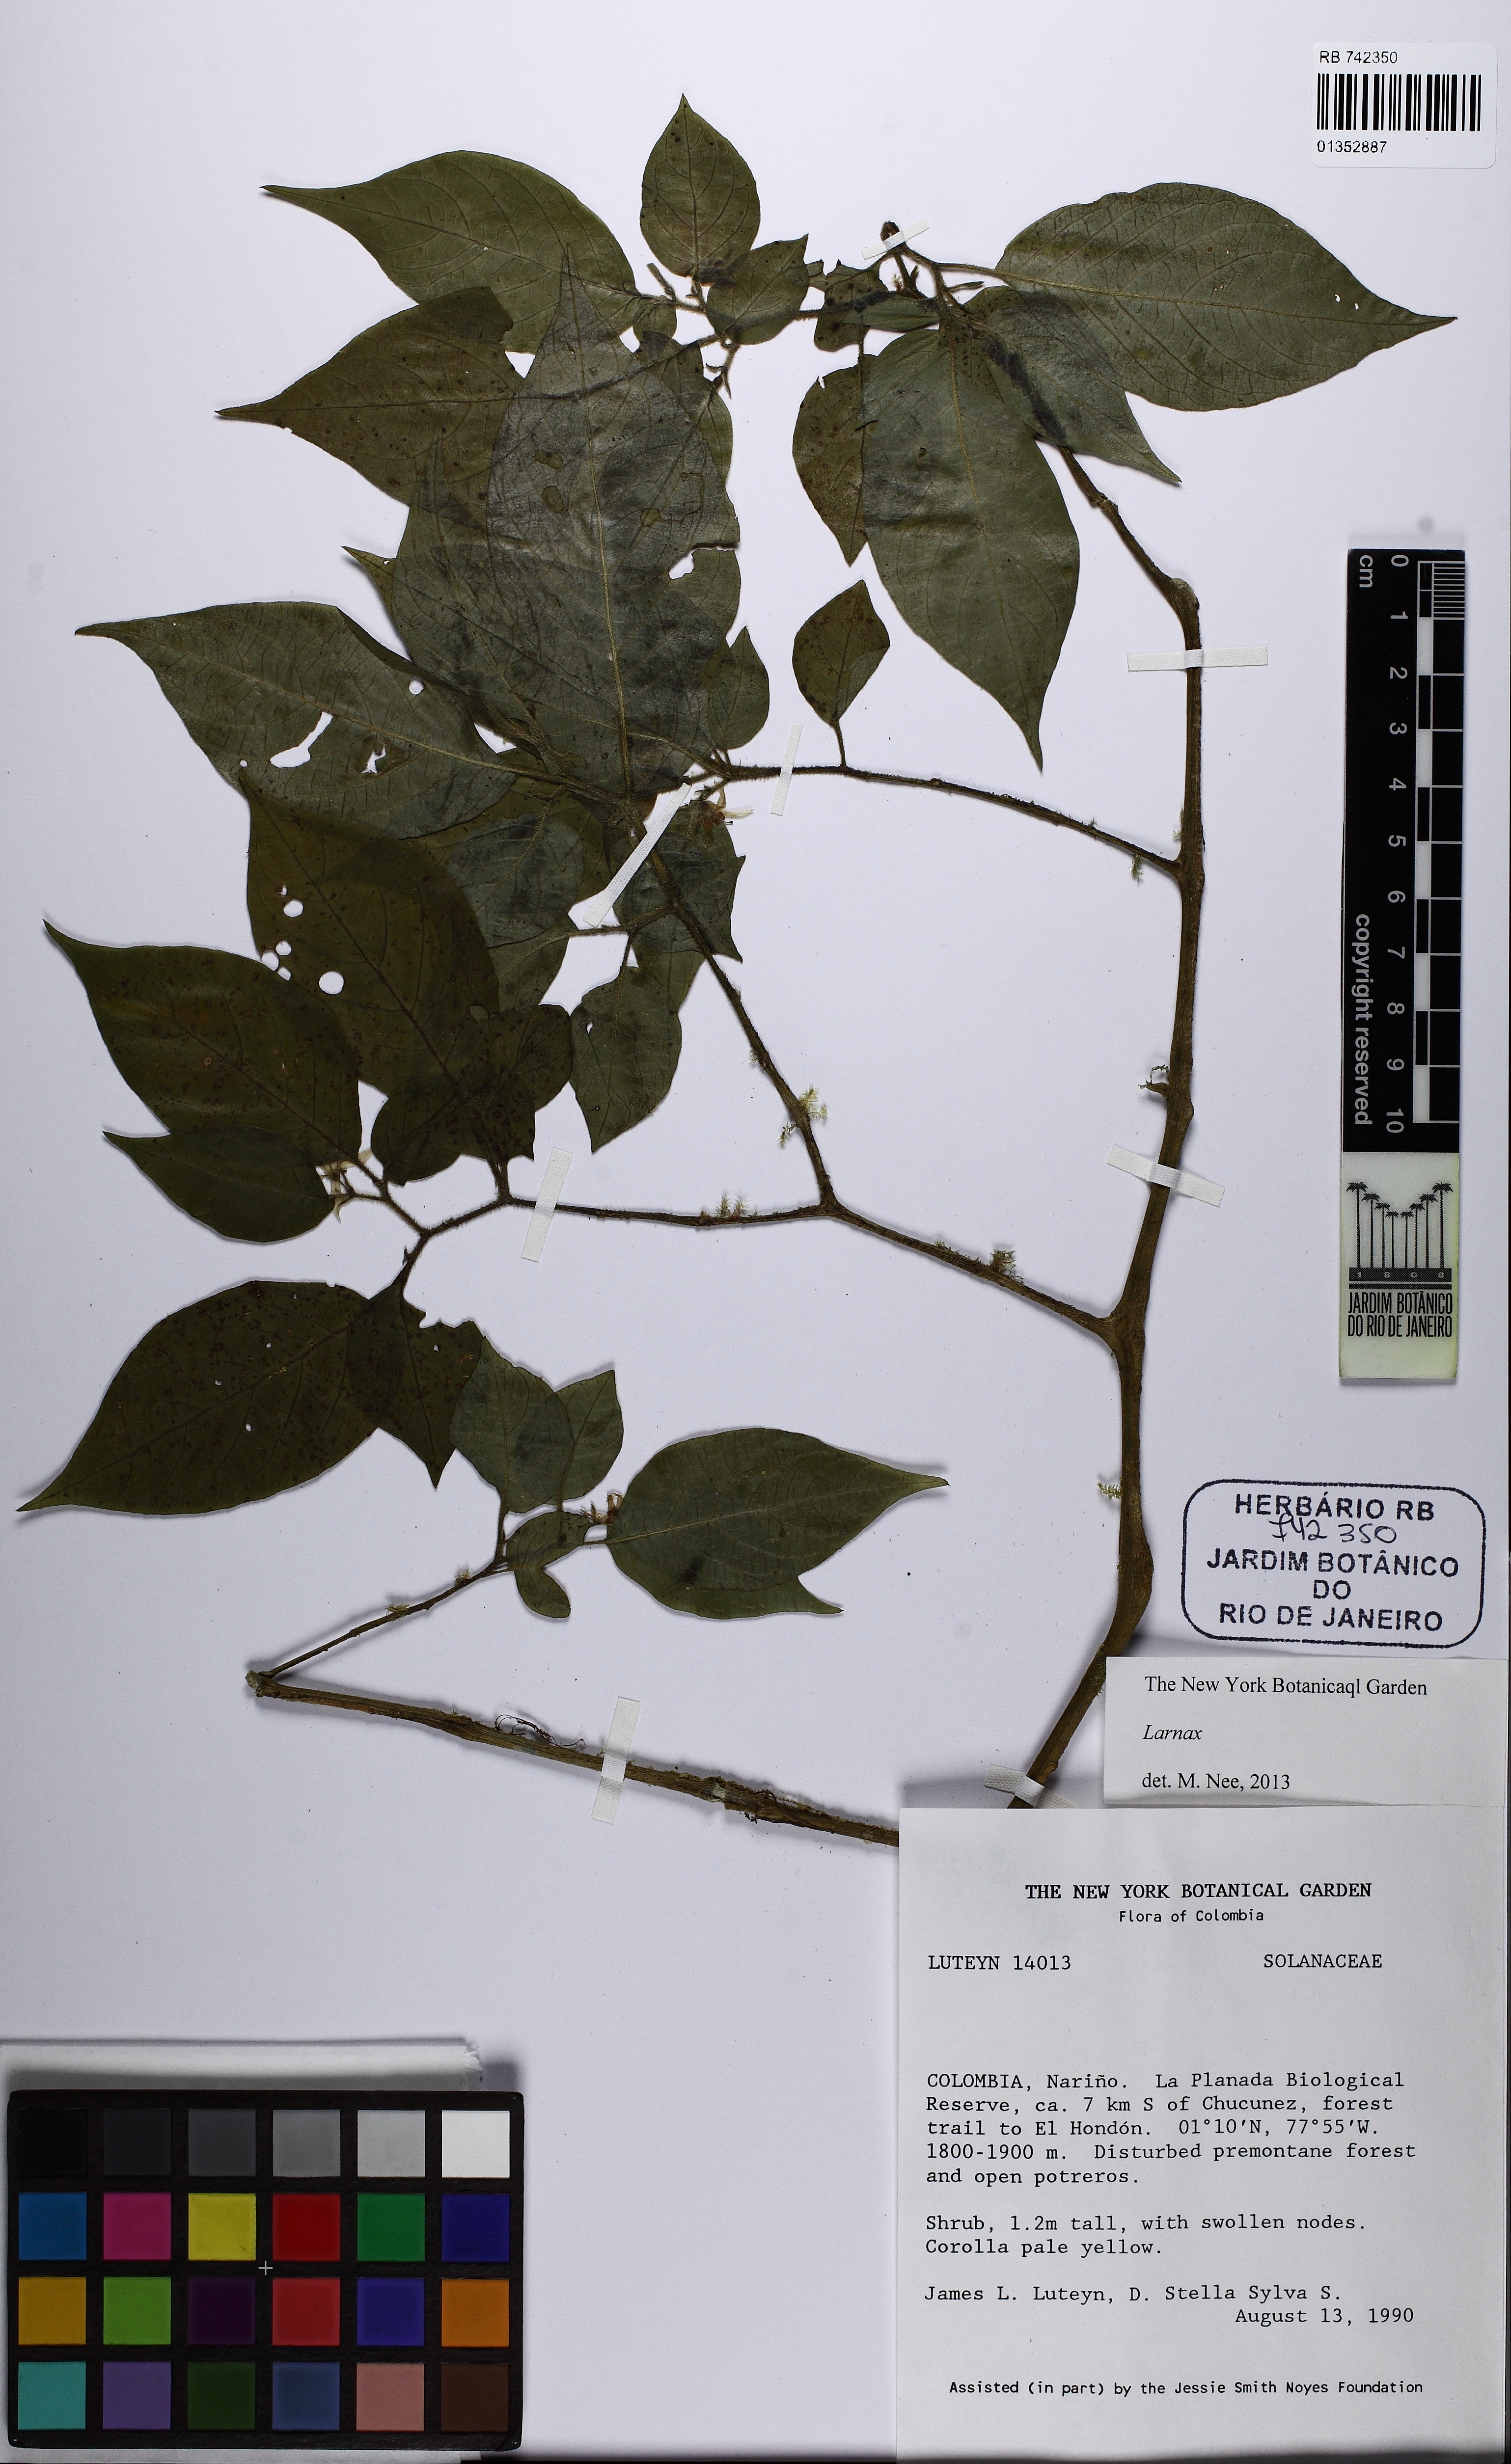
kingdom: Plantae
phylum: Tracheophyta
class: Magnoliopsida
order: Solanales
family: Solanaceae
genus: Deprea
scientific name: Deprea
